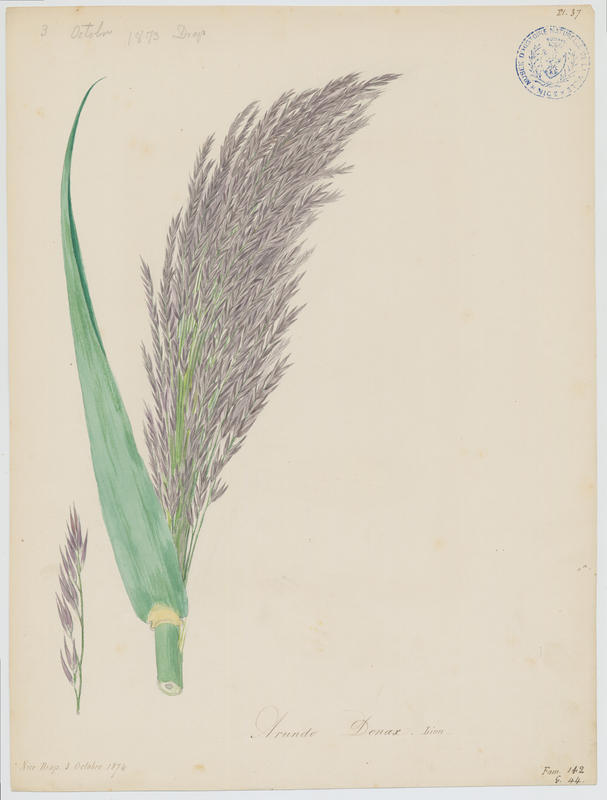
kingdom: Plantae
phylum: Tracheophyta
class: Liliopsida
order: Poales
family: Poaceae
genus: Arundo
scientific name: Arundo donax
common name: Giant reed
